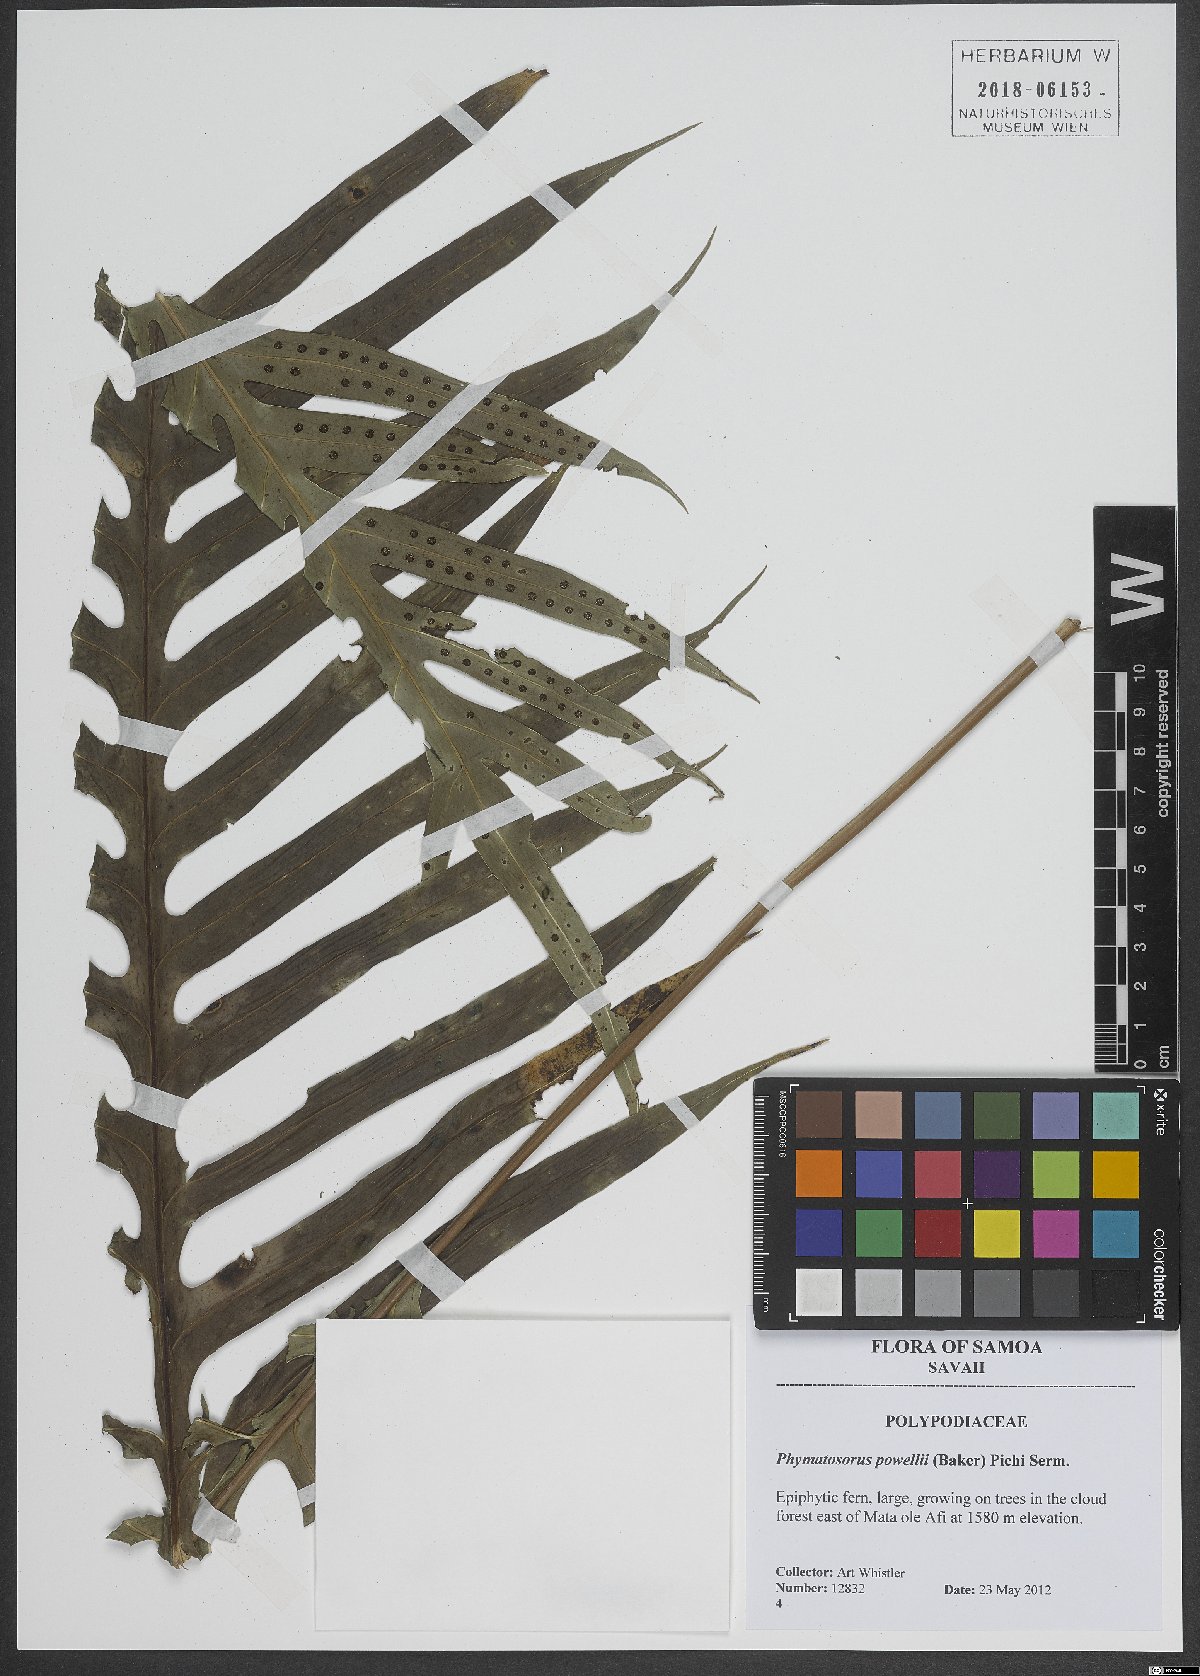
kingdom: Plantae
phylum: Tracheophyta
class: Polypodiopsida
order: Polypodiales
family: Polypodiaceae
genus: Microsorum
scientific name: Microsorum powellii
